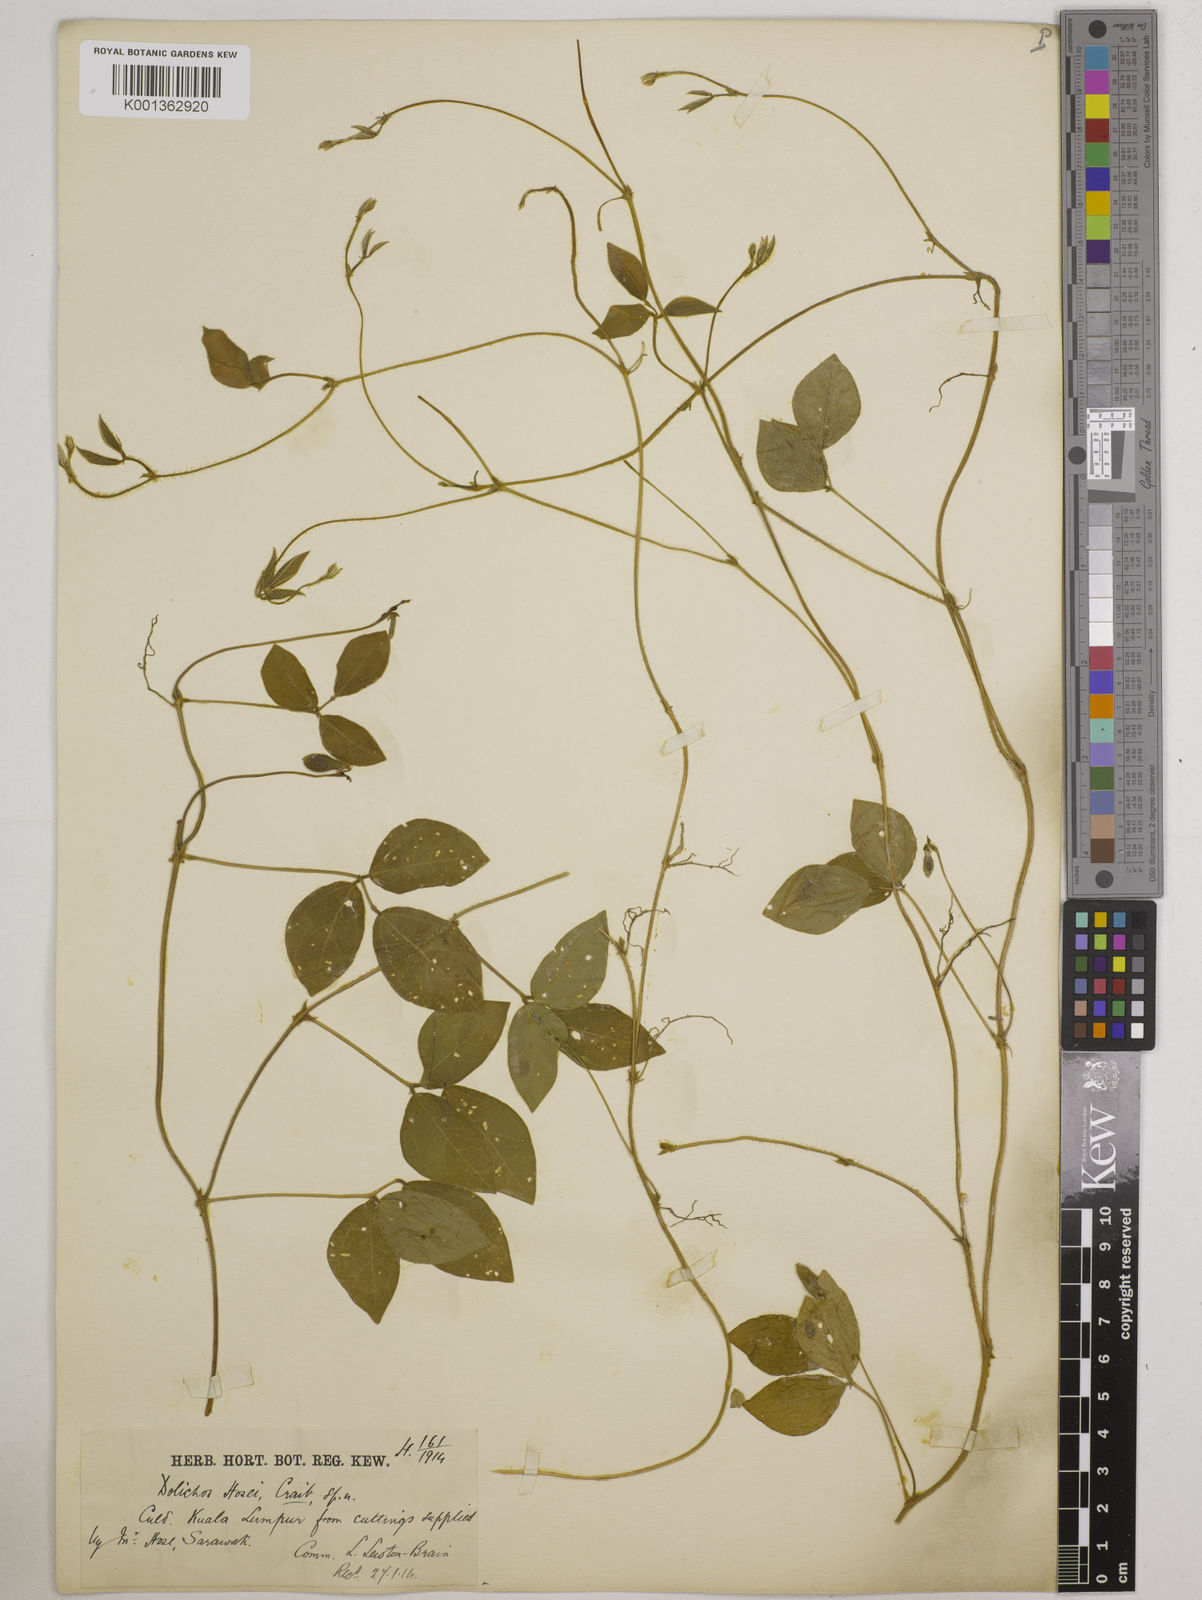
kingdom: Plantae
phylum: Tracheophyta
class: Magnoliopsida
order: Fabales
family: Fabaceae
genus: Vigna
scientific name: Vigna hosei
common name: Sarawak-bean
